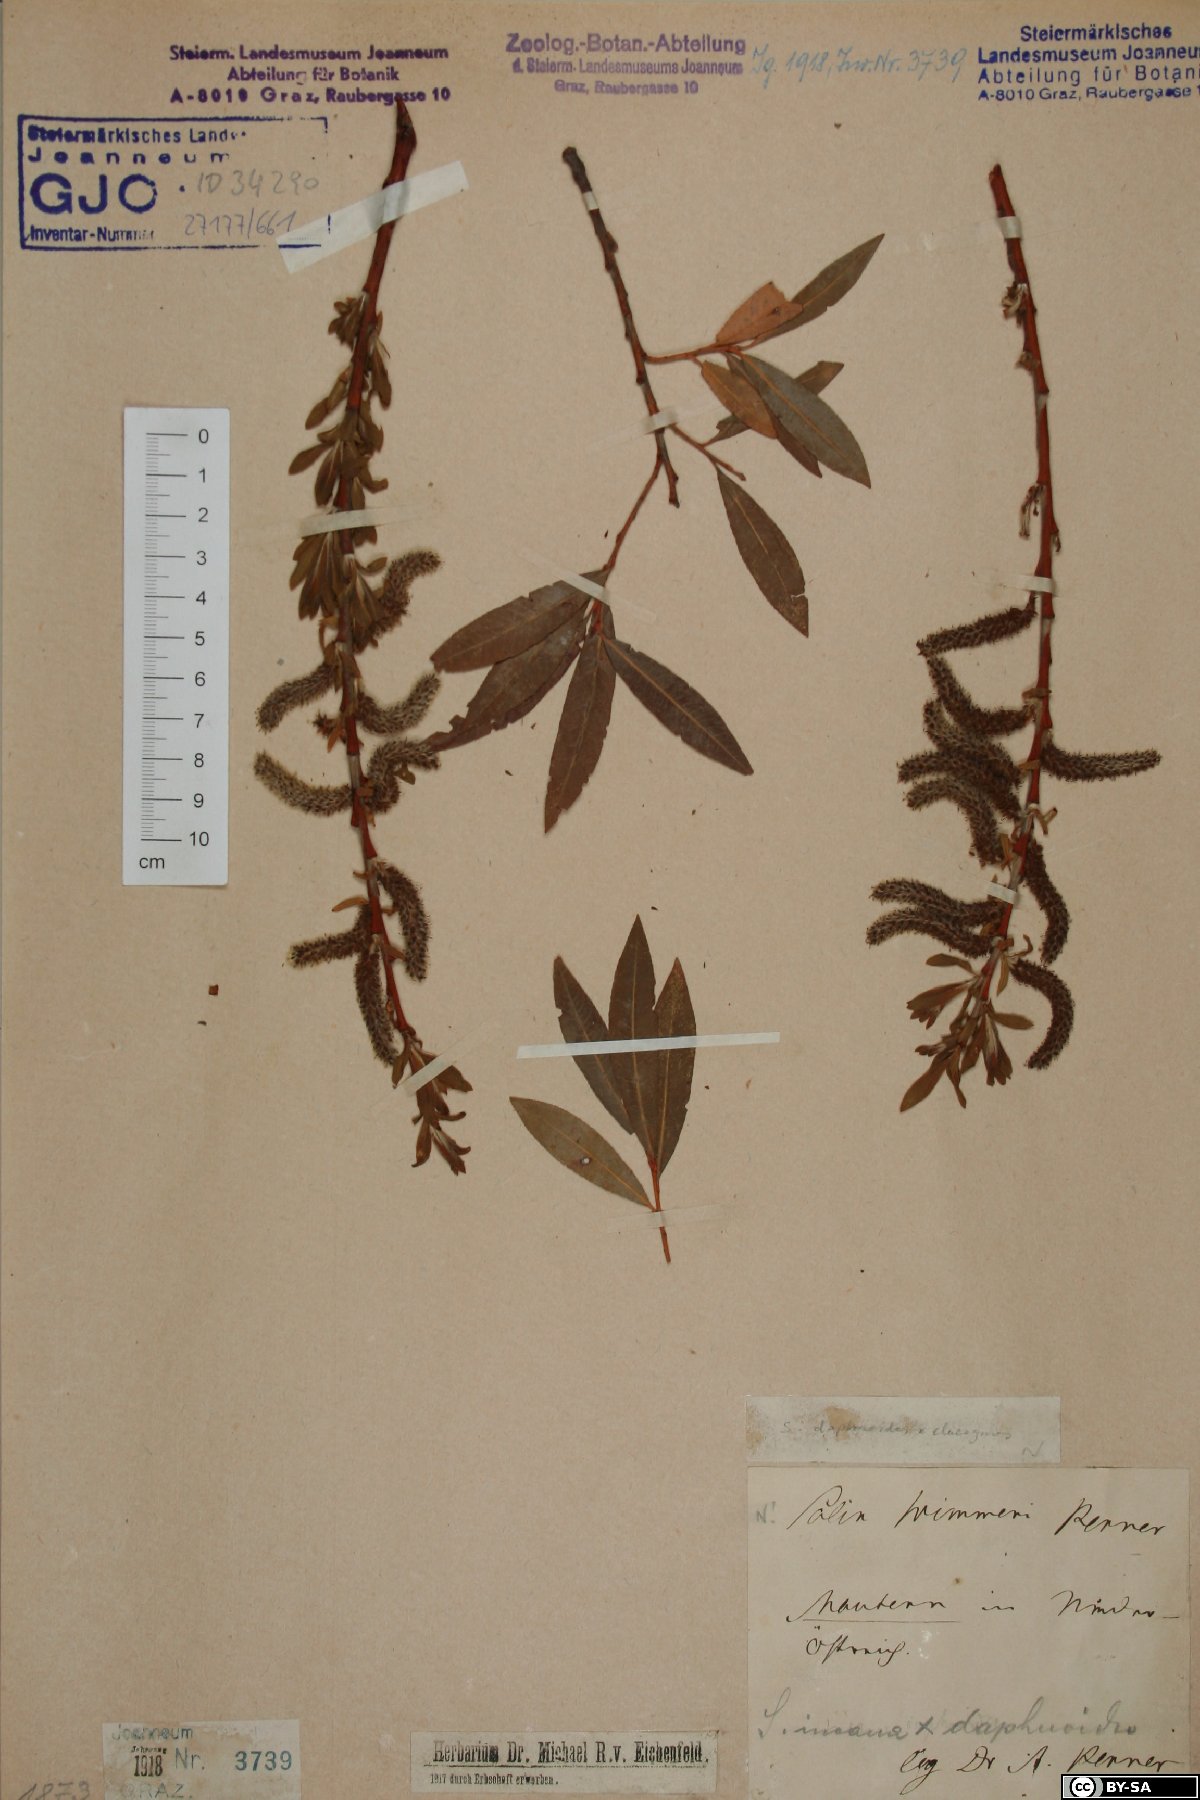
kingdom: Plantae
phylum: Tracheophyta
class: Magnoliopsida
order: Malpighiales
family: Salicaceae
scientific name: Salicaceae
